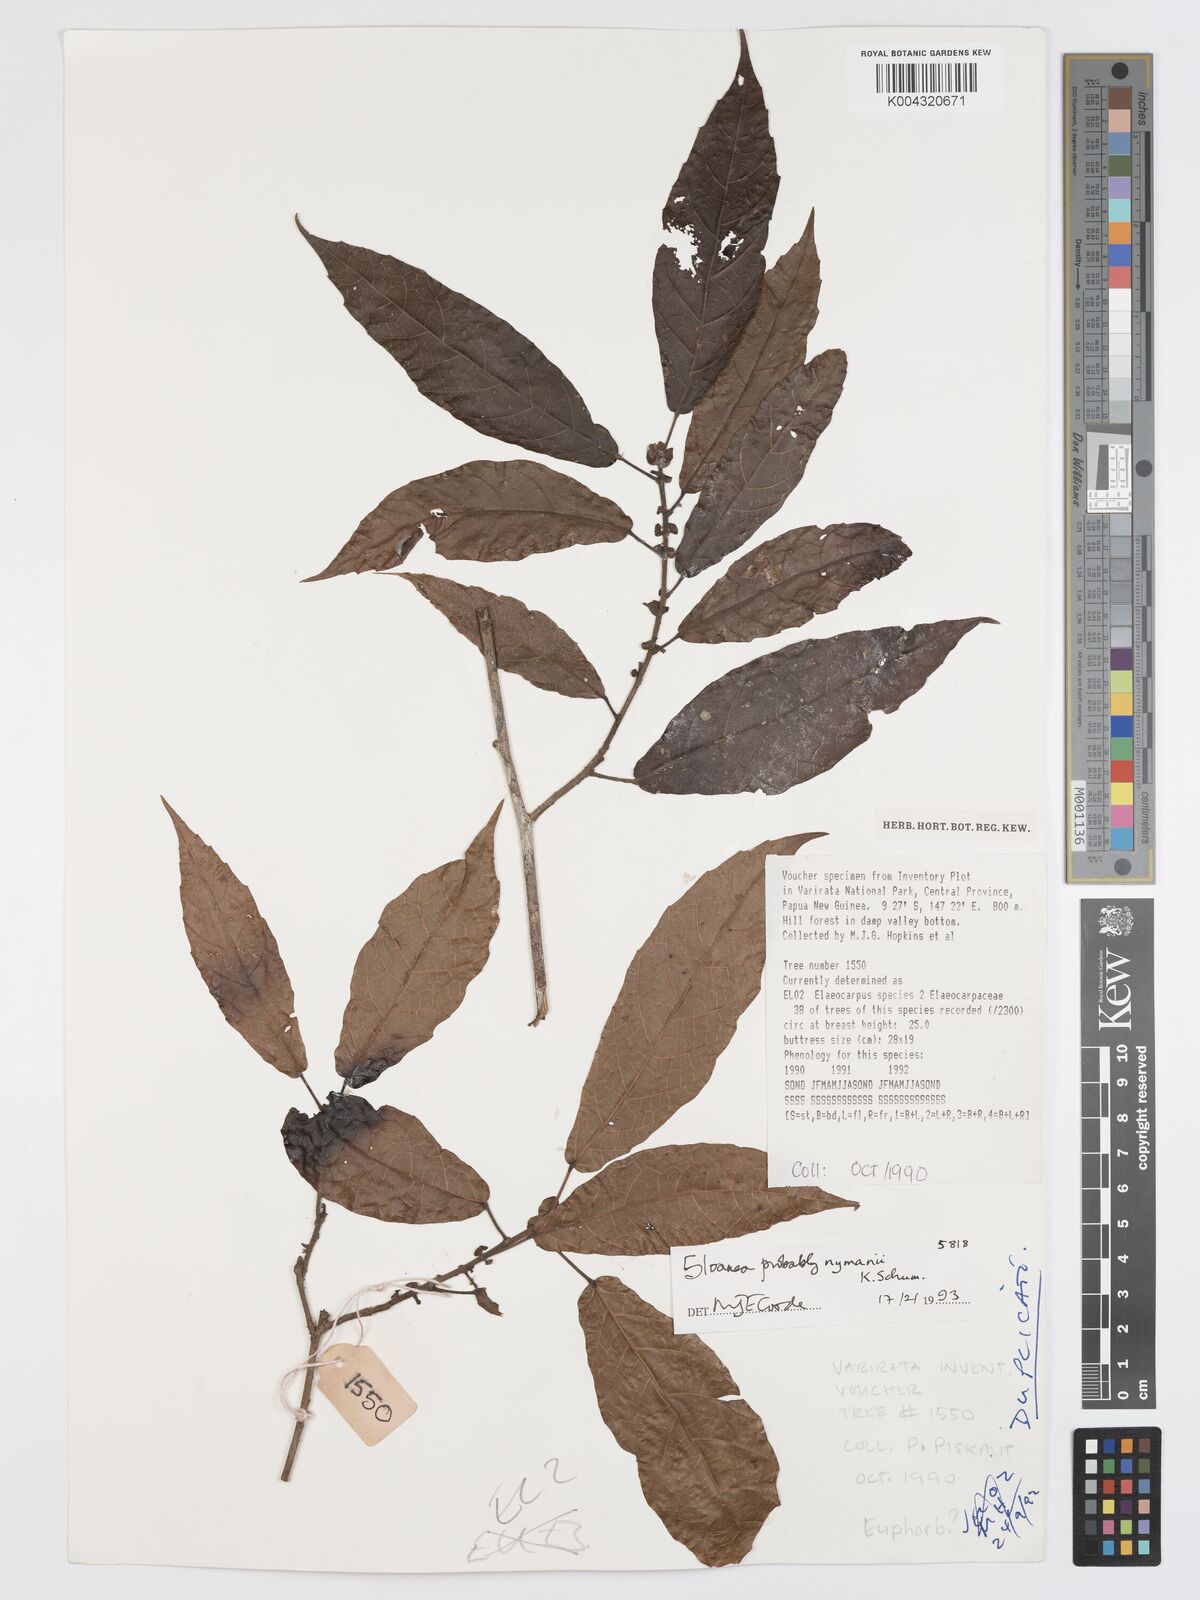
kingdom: Plantae
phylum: Tracheophyta
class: Magnoliopsida
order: Oxalidales
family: Elaeocarpaceae
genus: Sloanea
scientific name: Sloanea nymanii
